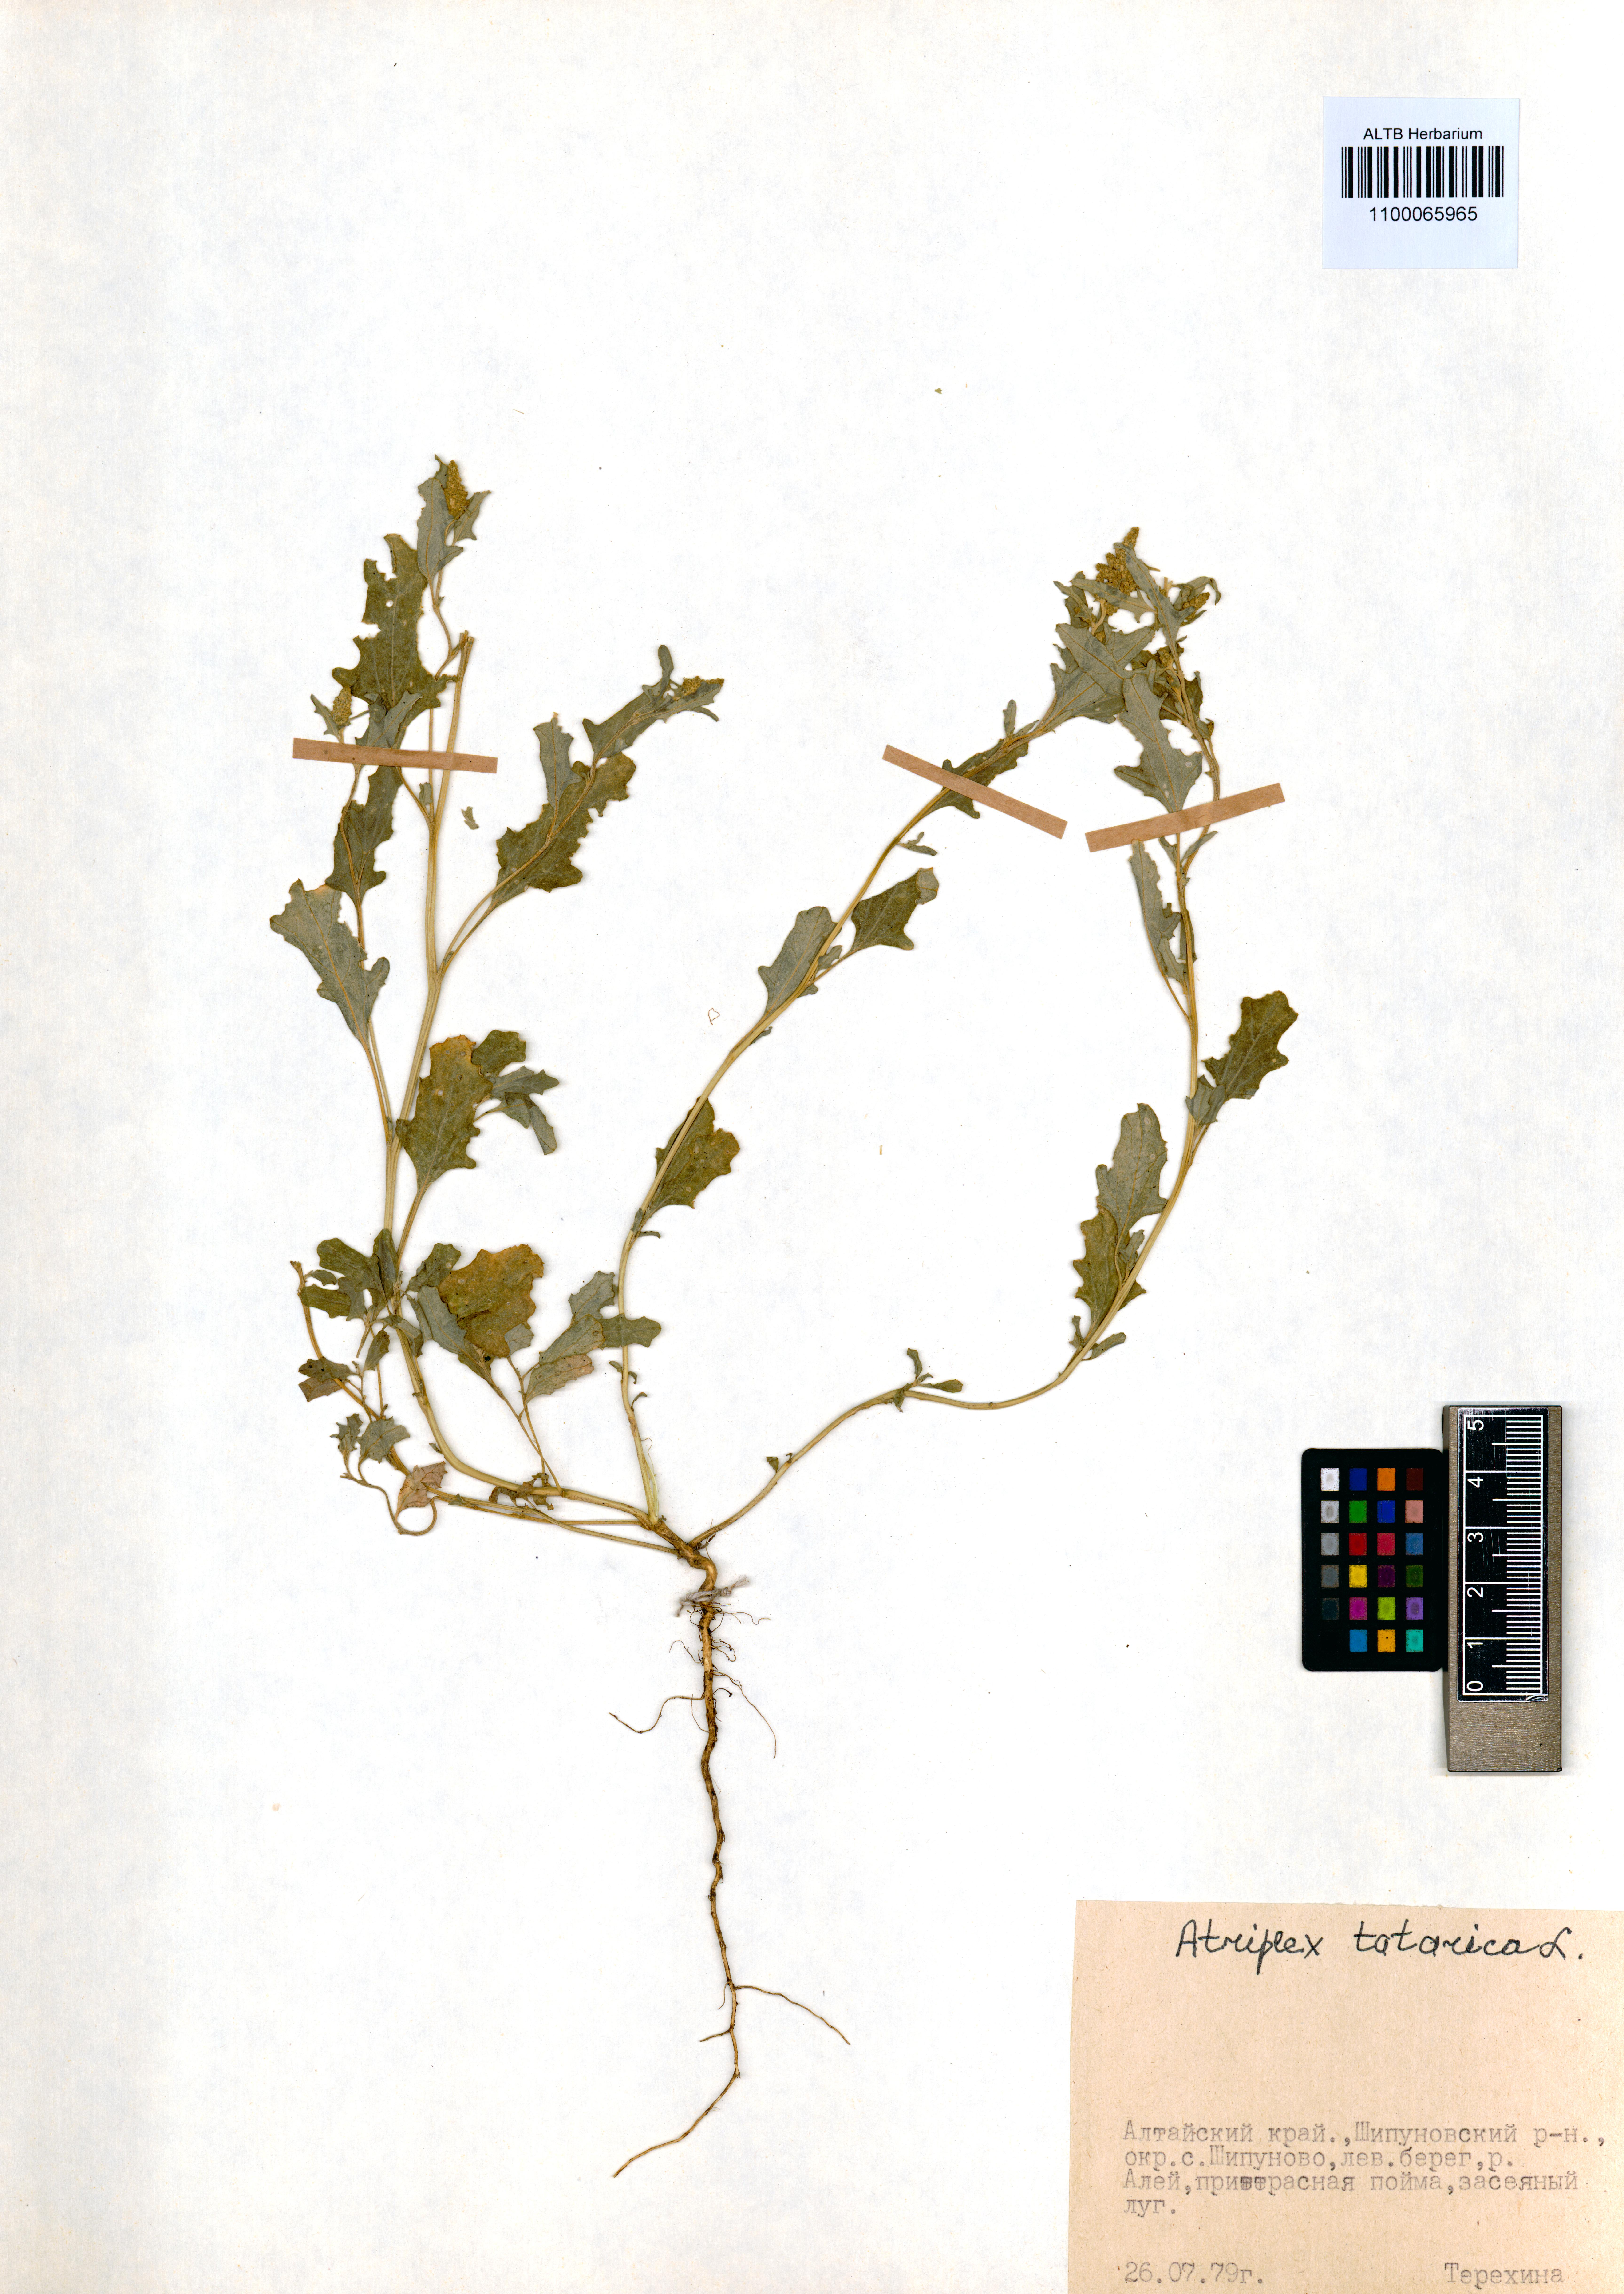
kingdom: Plantae
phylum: Tracheophyta
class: Magnoliopsida
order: Caryophyllales
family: Amaranthaceae
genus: Atriplex
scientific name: Atriplex tatarica
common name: Tatarian orache
